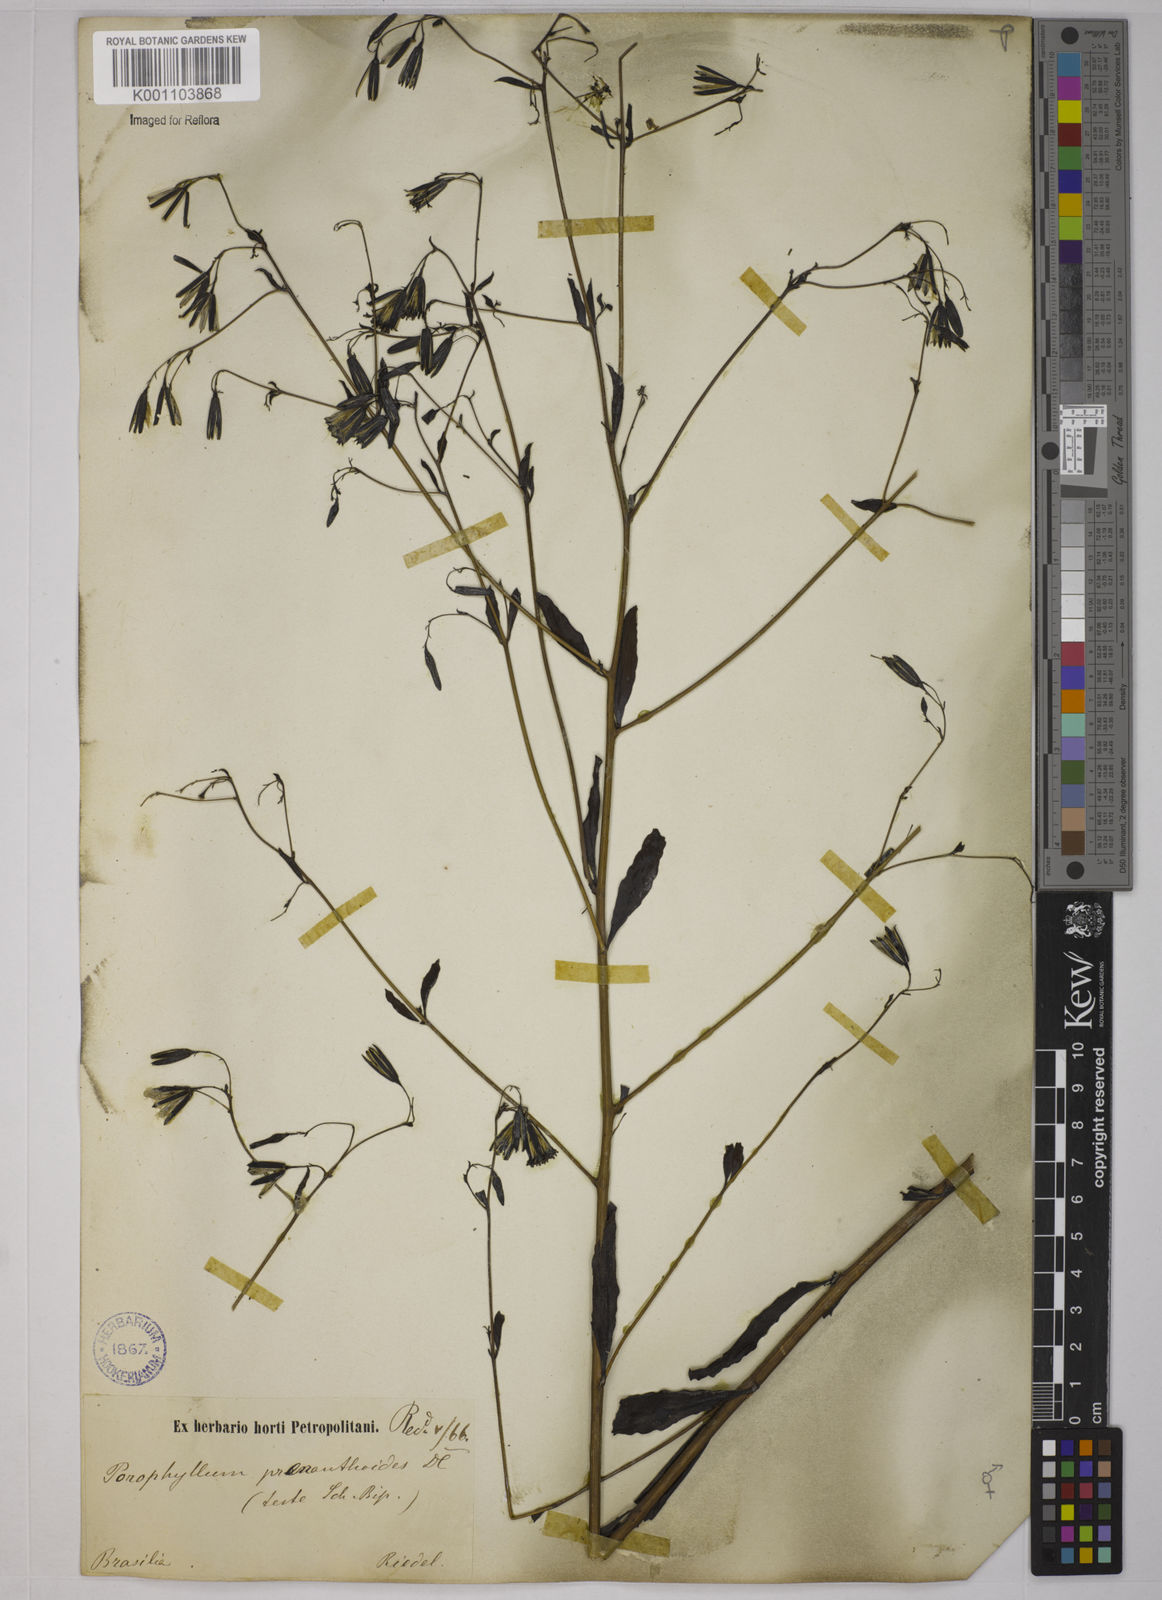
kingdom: Plantae
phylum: Tracheophyta
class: Magnoliopsida
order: Asterales
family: Asteraceae
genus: Porophyllum
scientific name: Porophyllum obscurum
